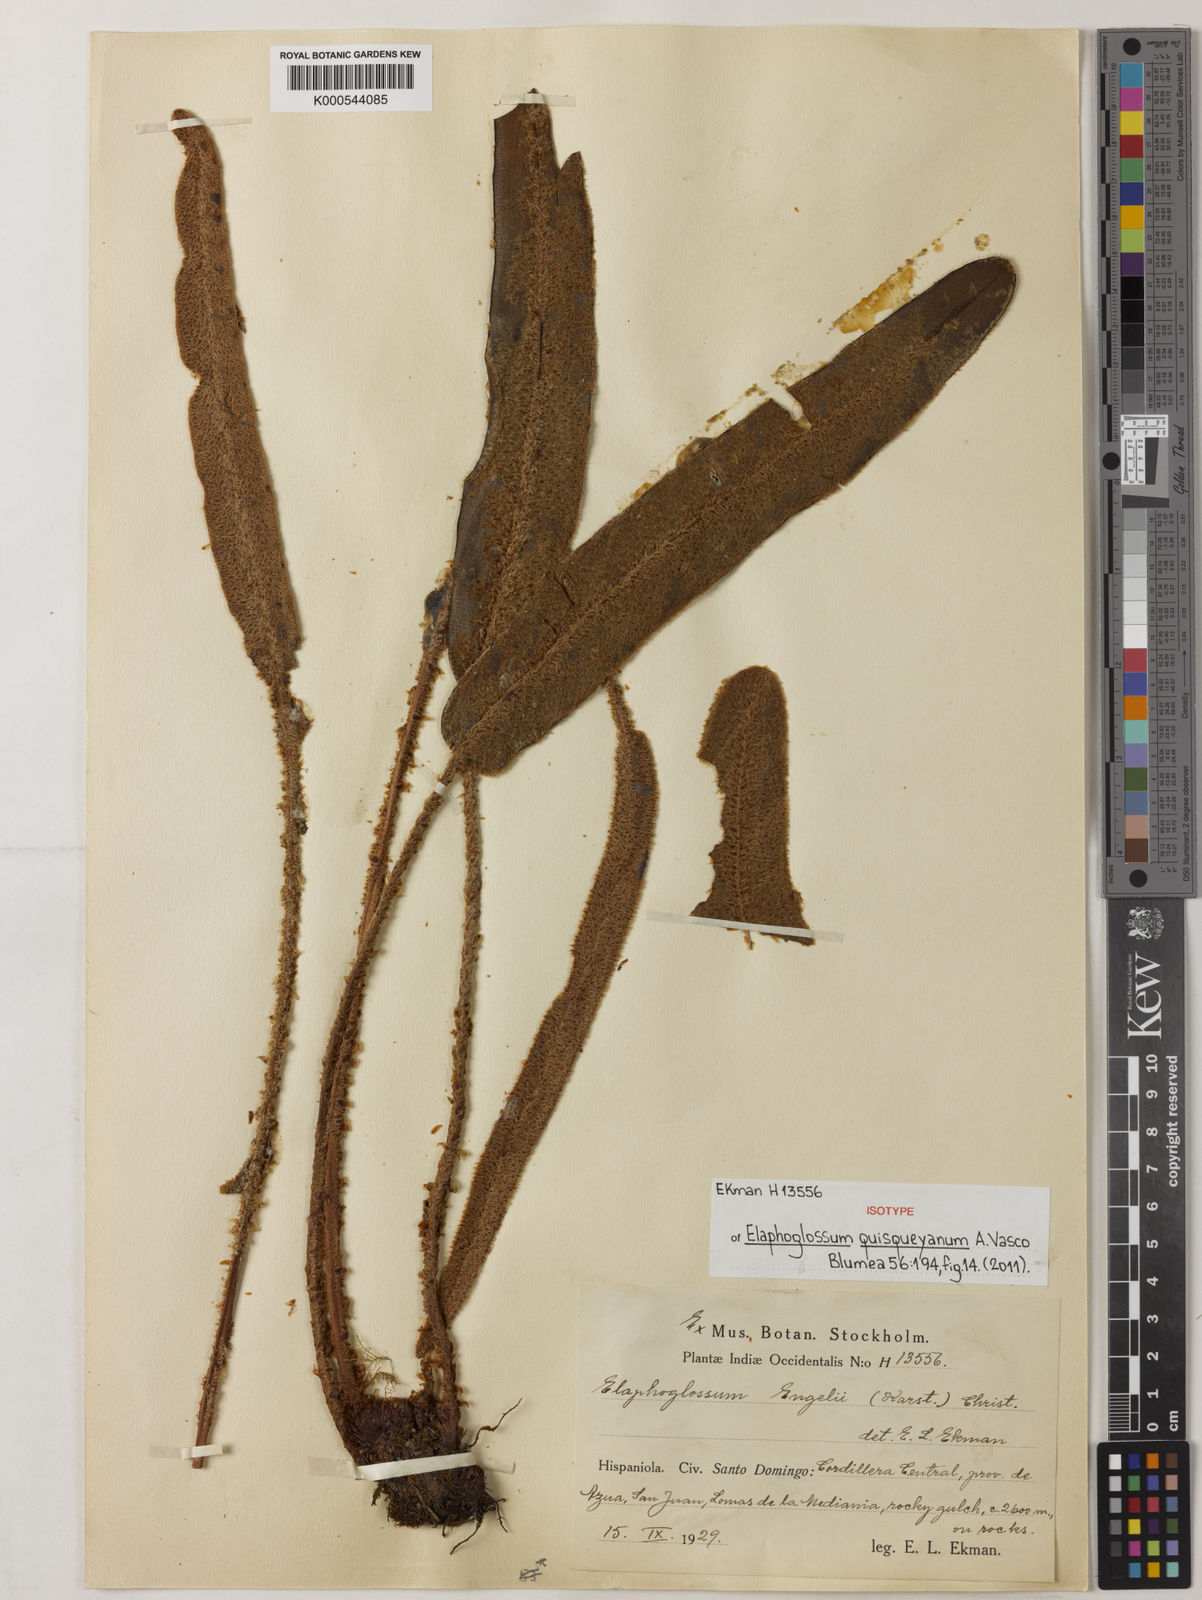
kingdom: Plantae
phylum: Tracheophyta
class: Polypodiopsida
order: Polypodiales
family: Dryopteridaceae
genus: Elaphoglossum
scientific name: Elaphoglossum quisqueyanum
